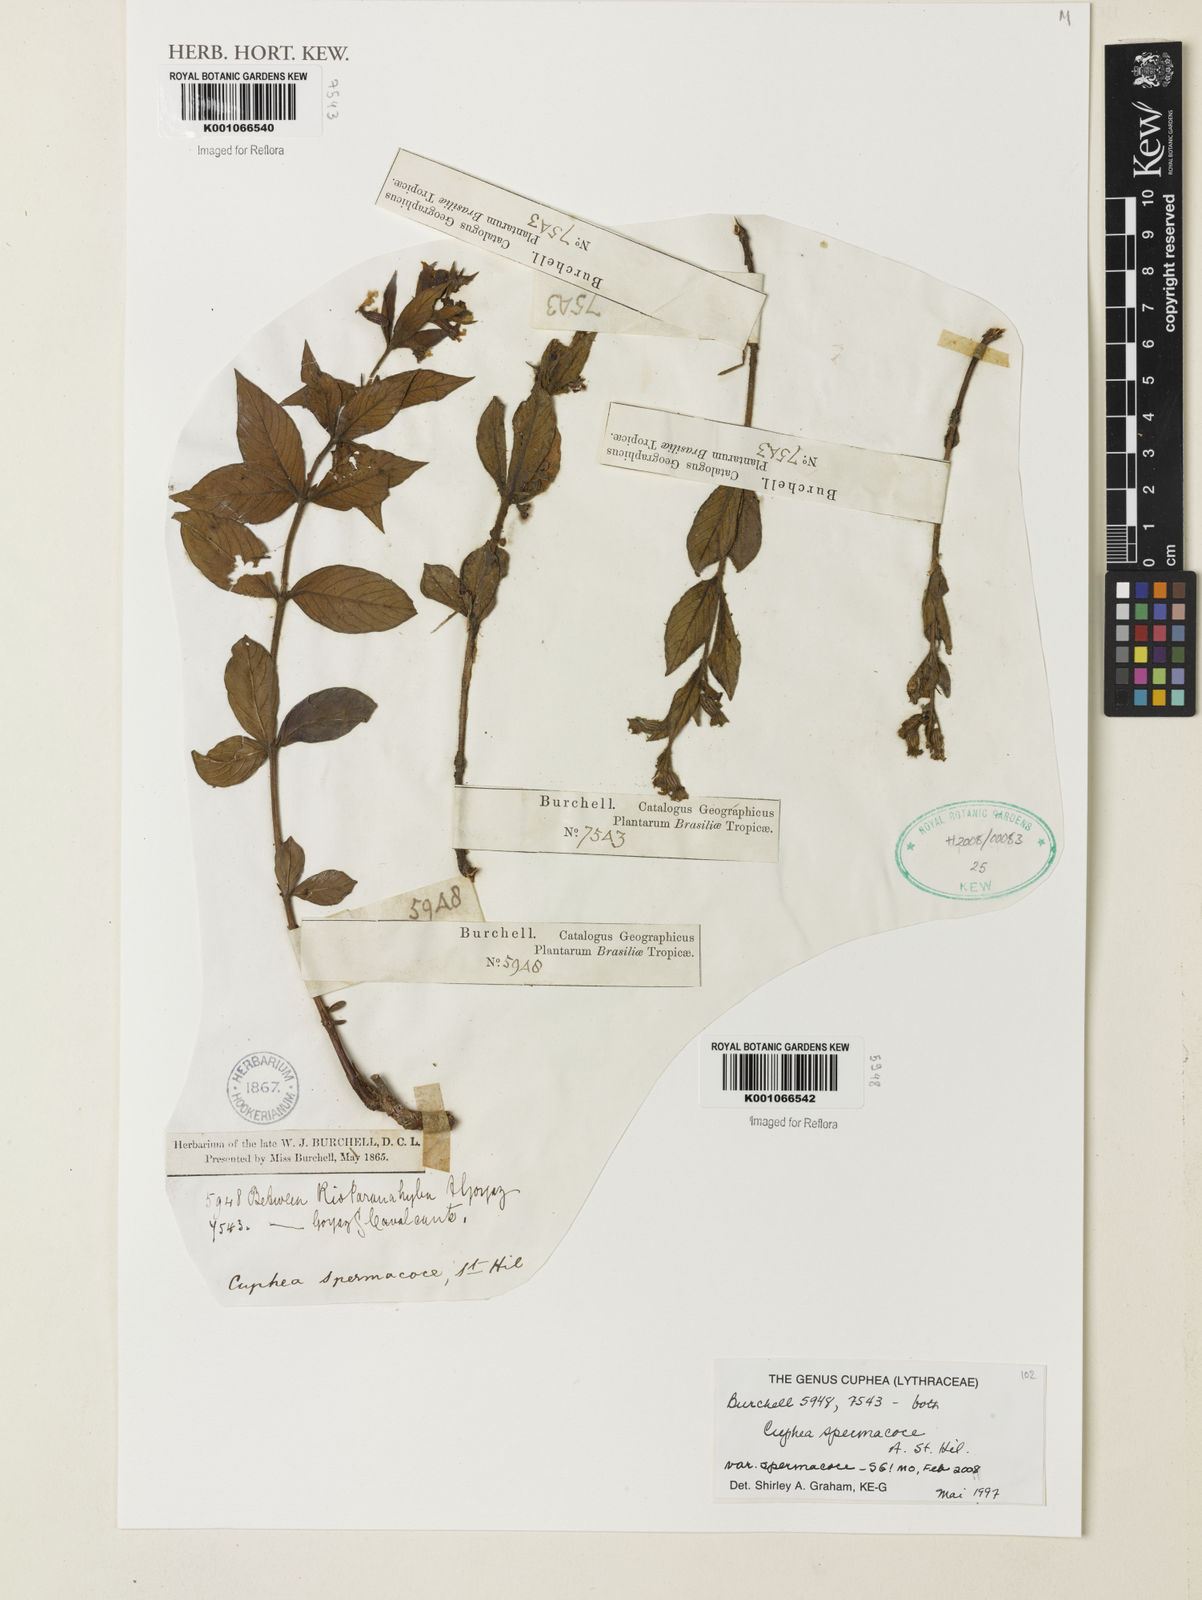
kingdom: Plantae
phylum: Tracheophyta
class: Magnoliopsida
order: Myrtales
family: Lythraceae
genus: Cuphea
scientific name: Cuphea spermacoce
